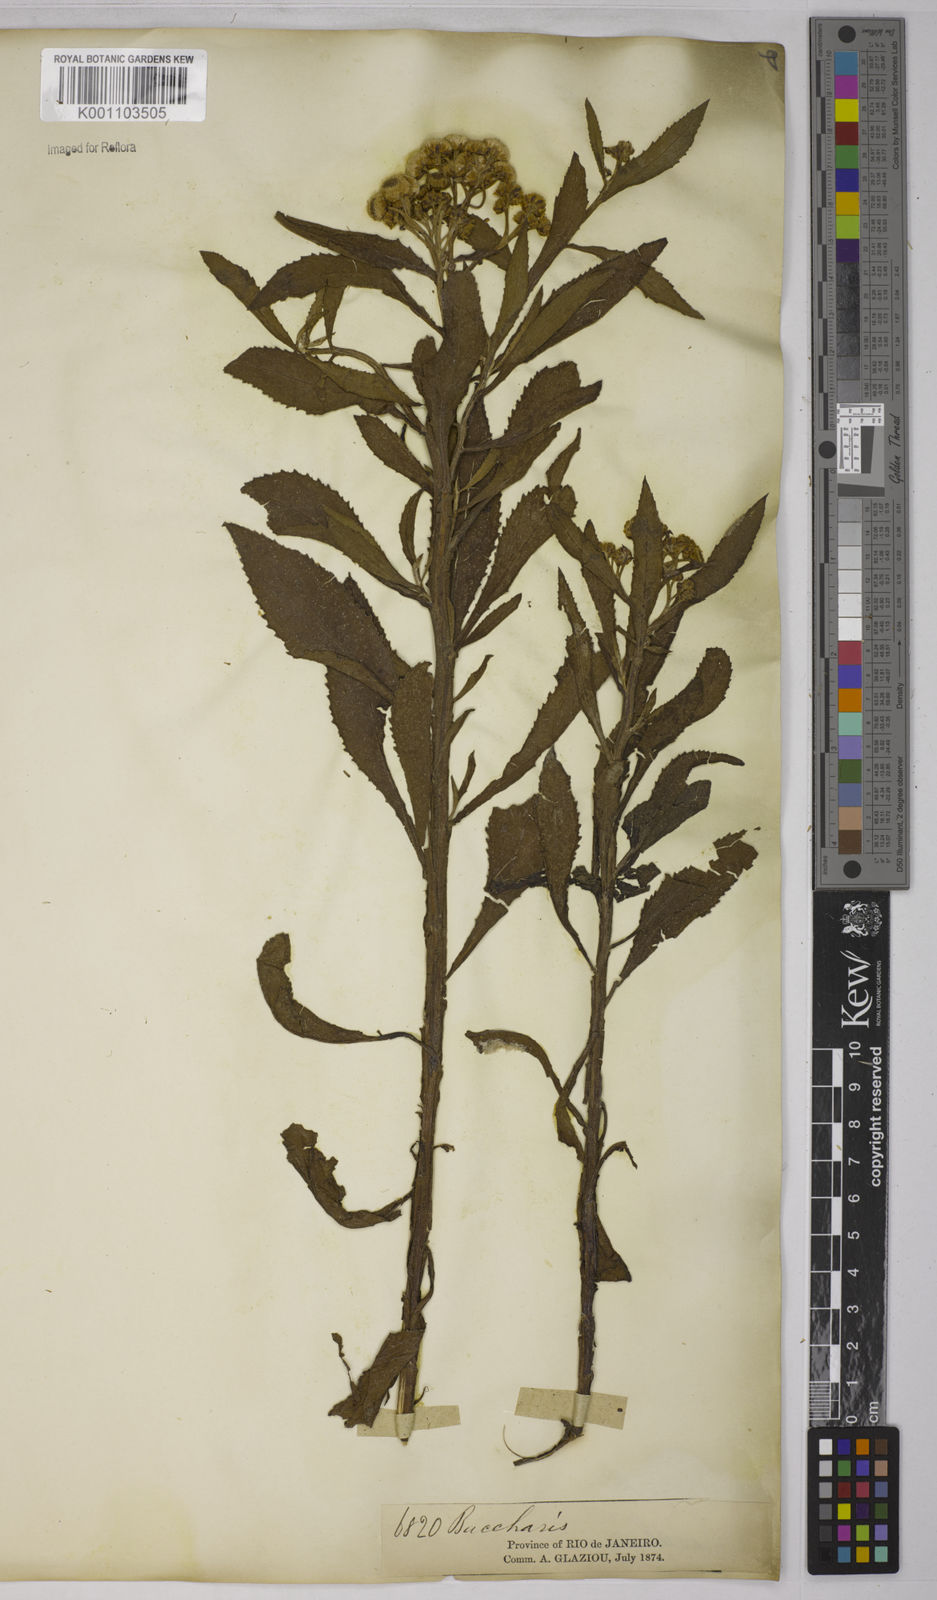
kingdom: Plantae
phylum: Tracheophyta
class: Magnoliopsida
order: Asterales
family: Asteraceae
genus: Pluchea
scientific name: Pluchea sagittalis
